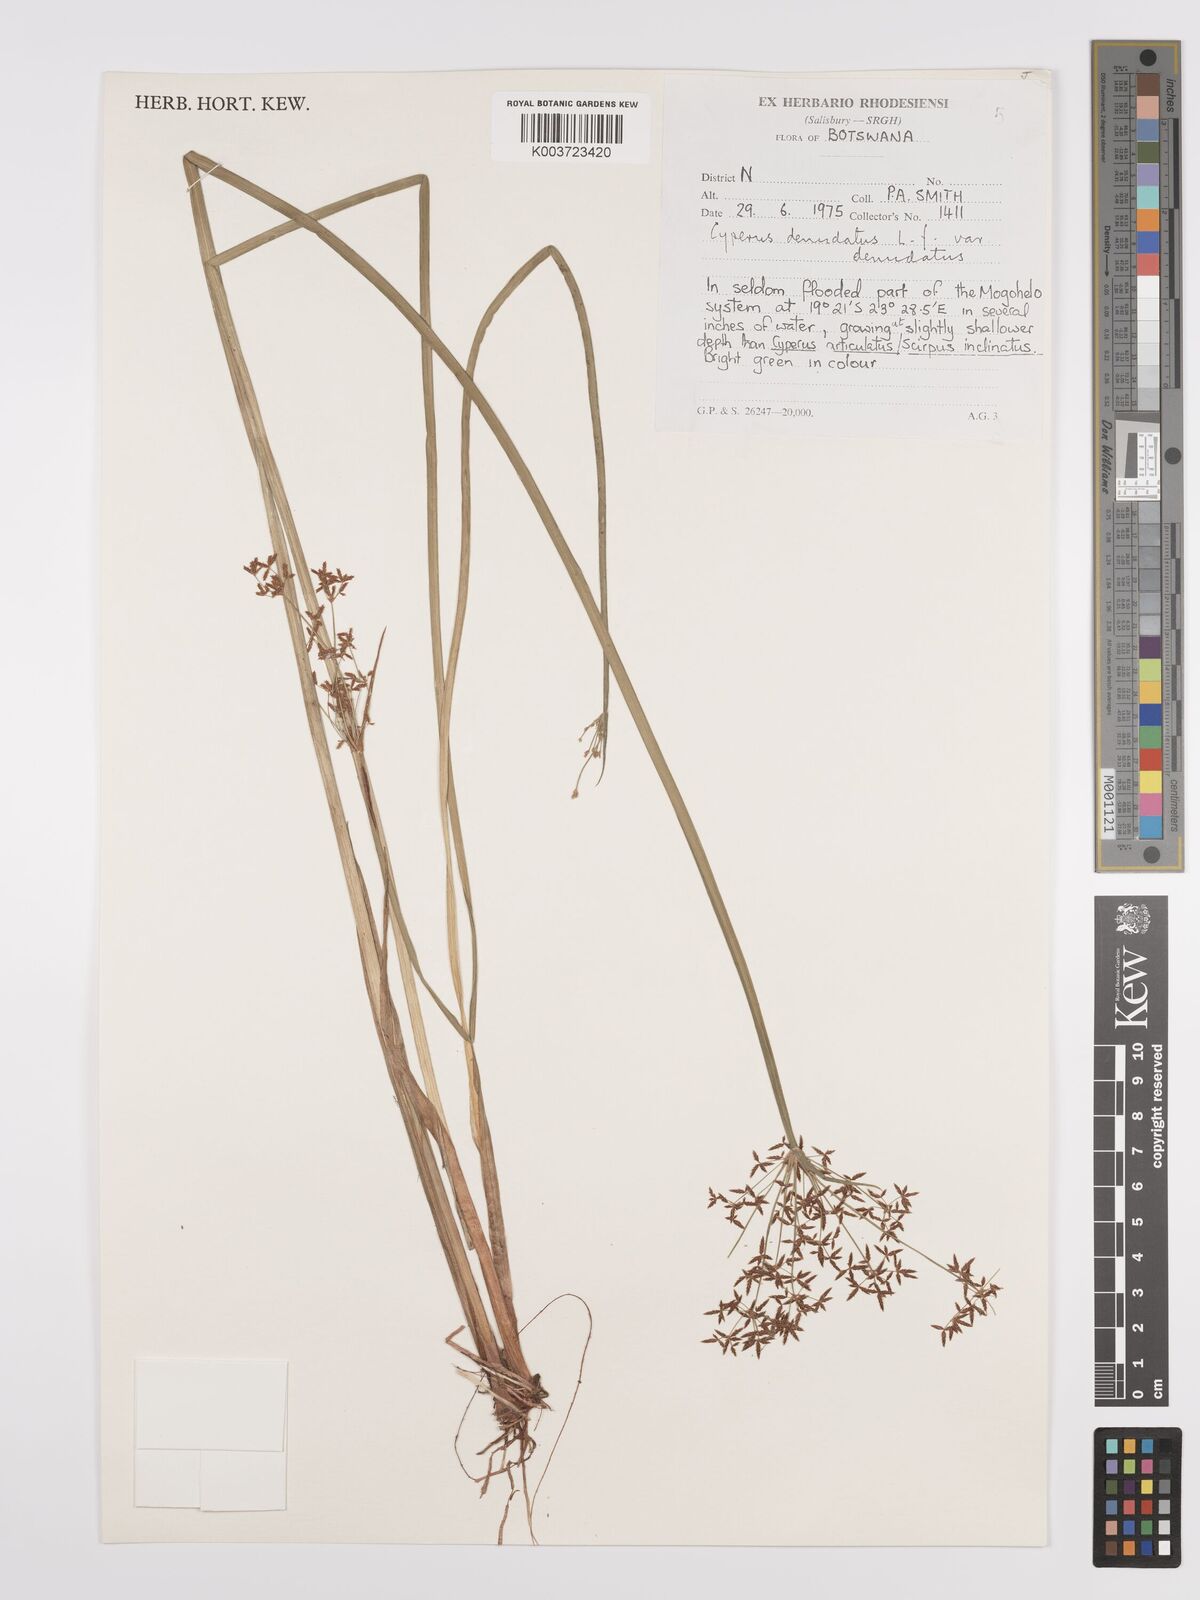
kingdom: Plantae
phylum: Tracheophyta
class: Liliopsida
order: Poales
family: Cyperaceae
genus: Cyperus
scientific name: Cyperus denudatus
